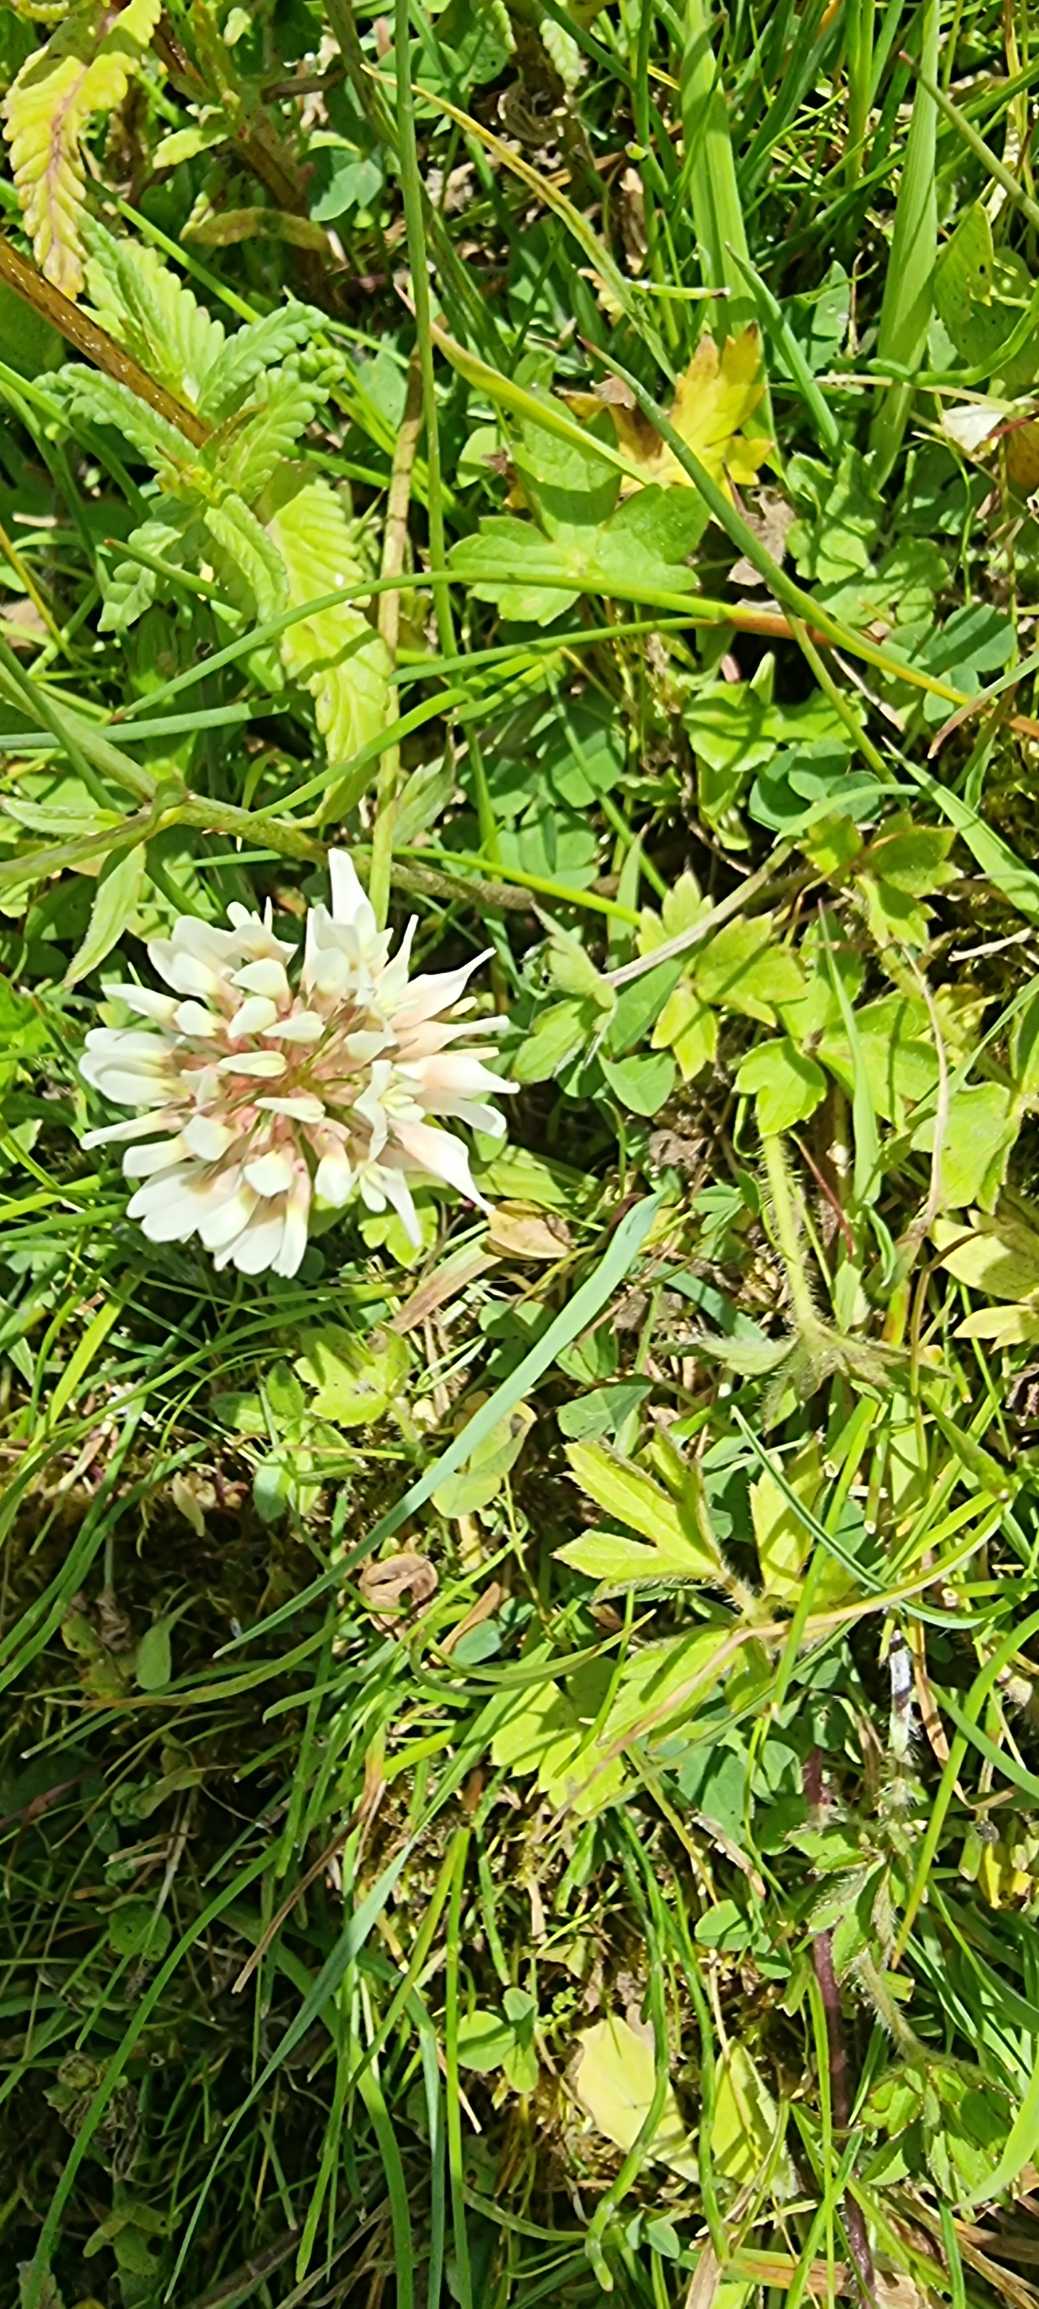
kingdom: Plantae
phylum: Tracheophyta
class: Magnoliopsida
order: Fabales
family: Fabaceae
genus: Trifolium
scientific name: Trifolium repens
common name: Hvid-kløver
